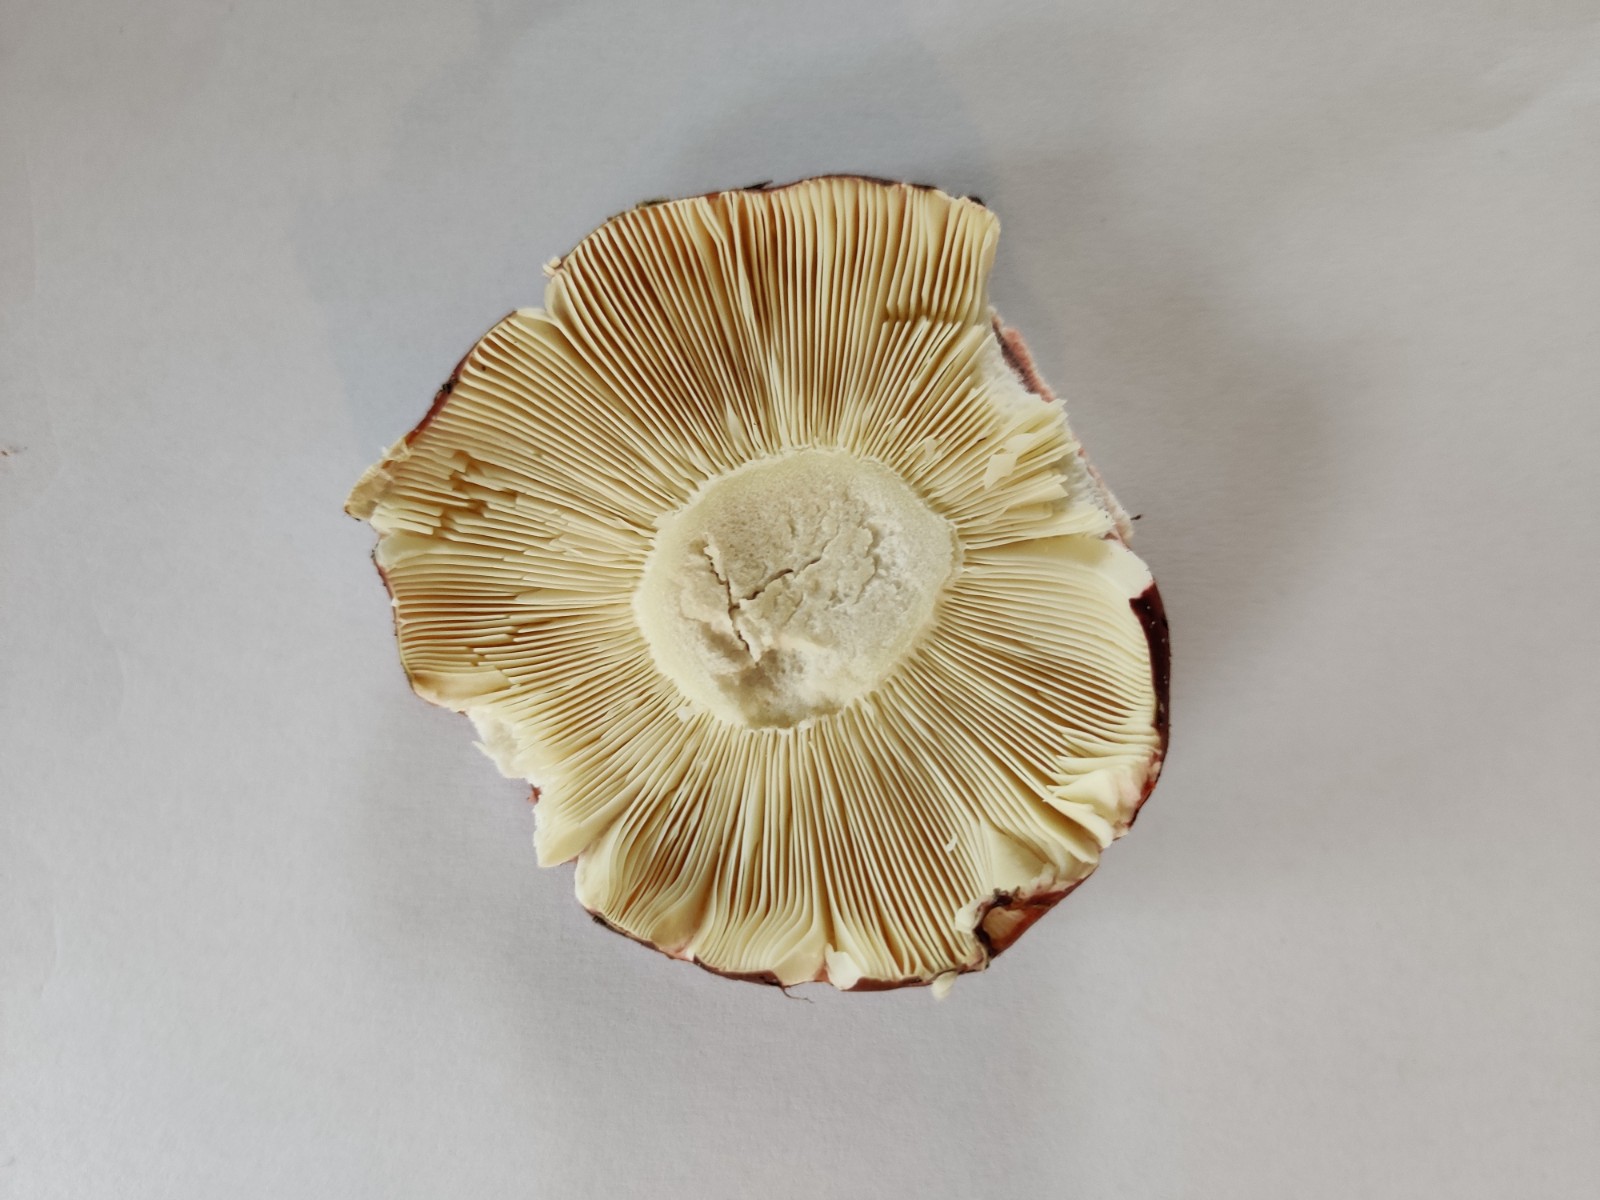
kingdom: Fungi
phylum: Basidiomycota
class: Agaricomycetes
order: Russulales
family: Russulaceae
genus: Russula
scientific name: Russula
